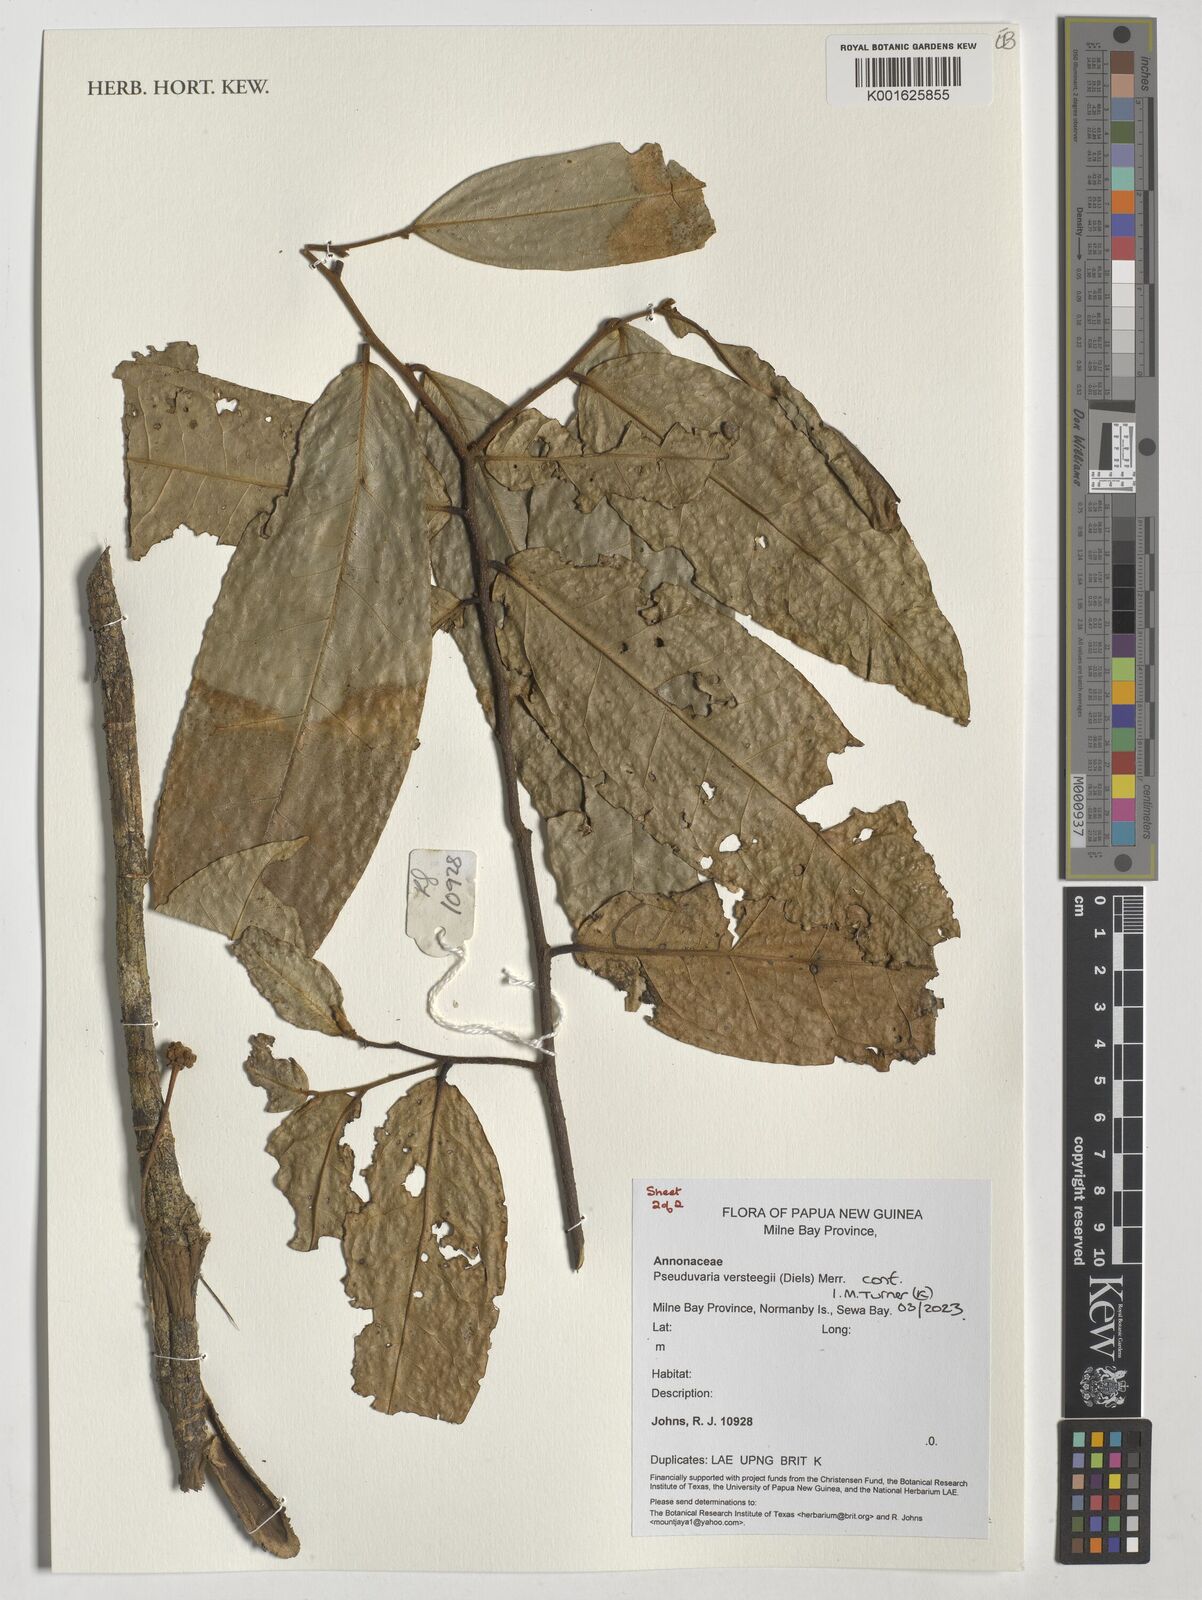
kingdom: Plantae
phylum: Tracheophyta
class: Magnoliopsida
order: Magnoliales
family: Annonaceae
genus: Pseuduvaria
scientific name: Pseuduvaria macrocarpa
